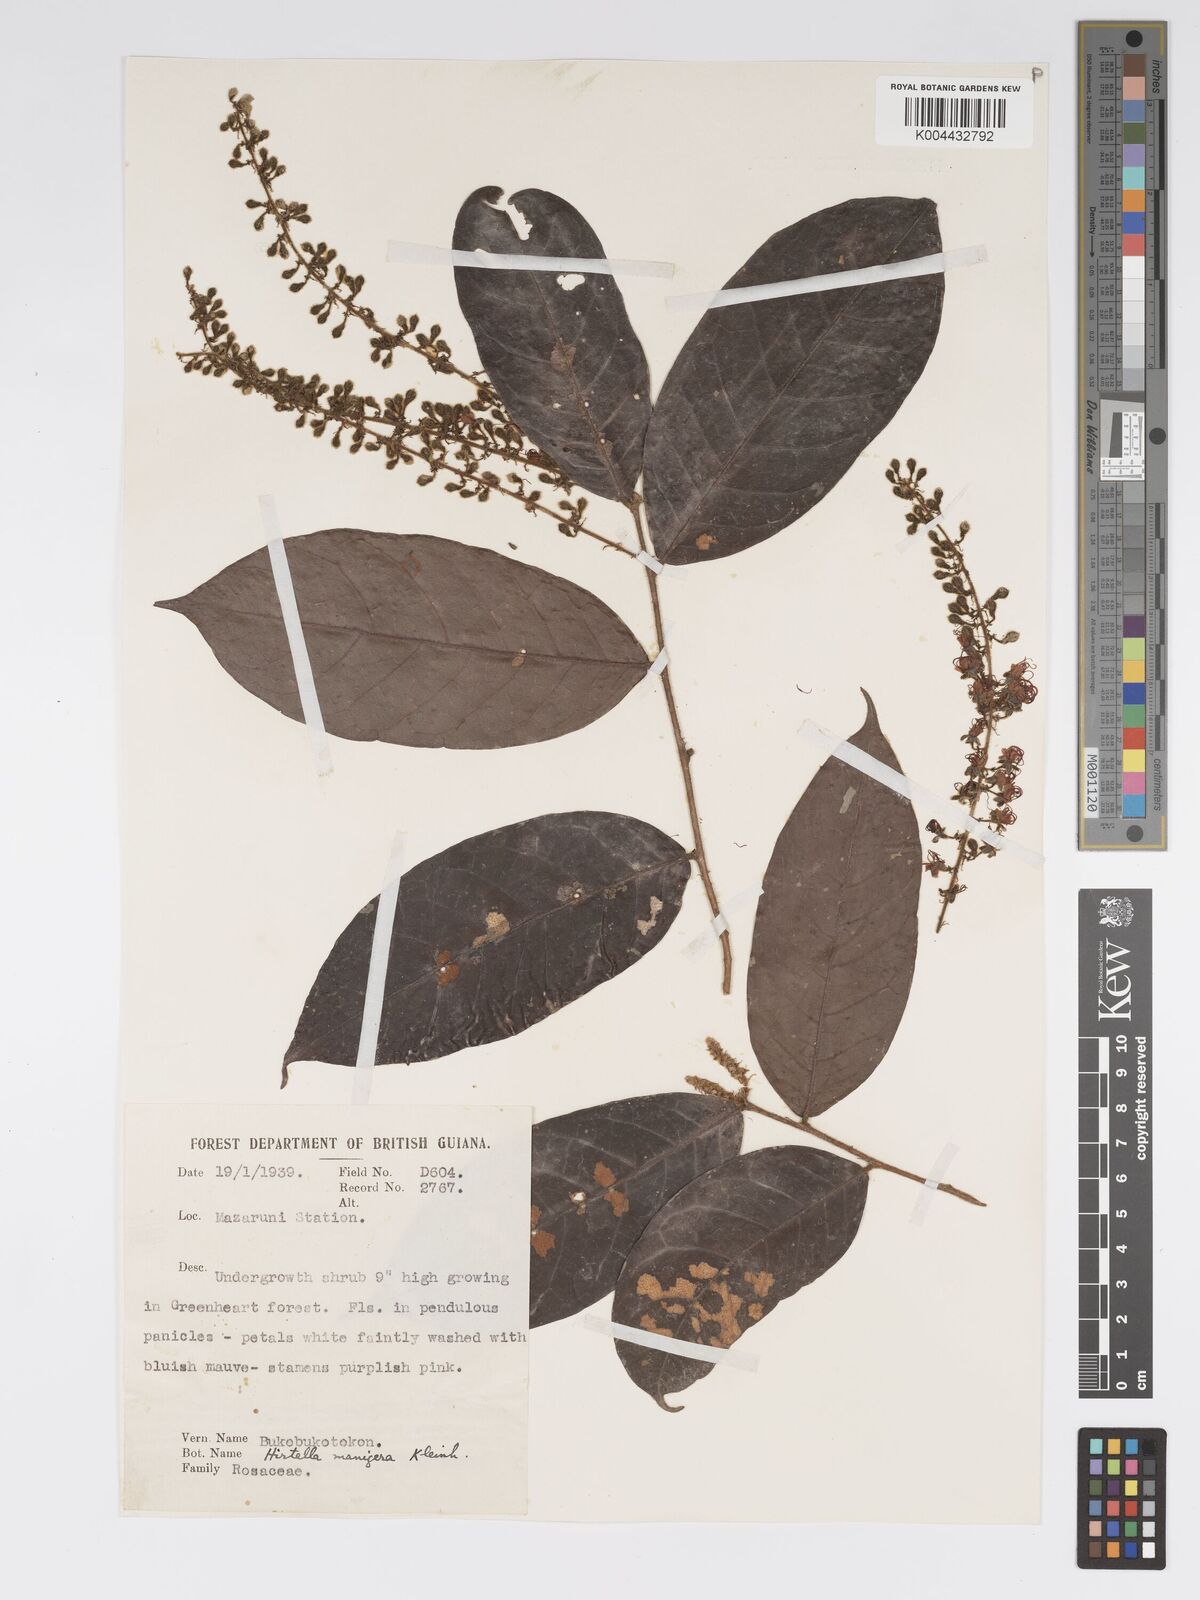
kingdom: Plantae
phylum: Tracheophyta
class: Magnoliopsida
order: Malpighiales
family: Chrysobalanaceae
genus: Hirtella
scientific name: Hirtella silicea
